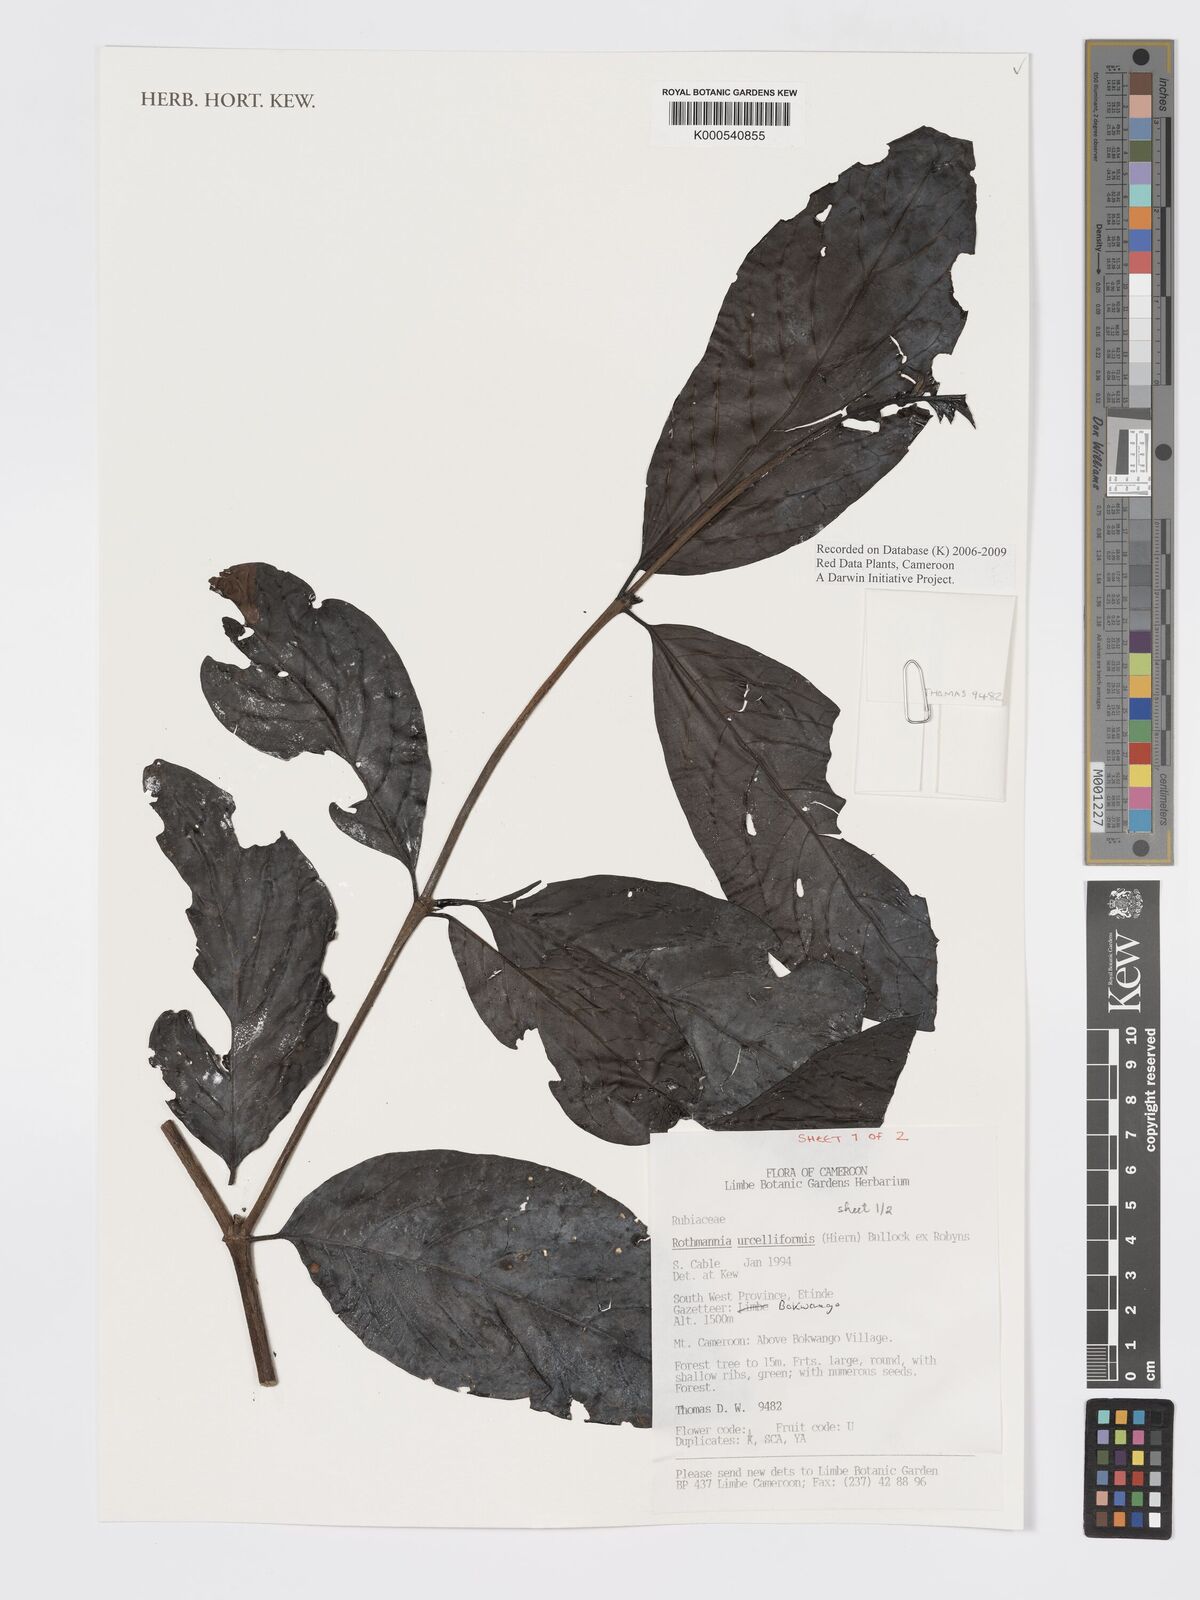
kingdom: Plantae
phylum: Tracheophyta
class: Magnoliopsida
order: Gentianales
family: Rubiaceae
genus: Rothmannia
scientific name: Rothmannia urcelliformis
